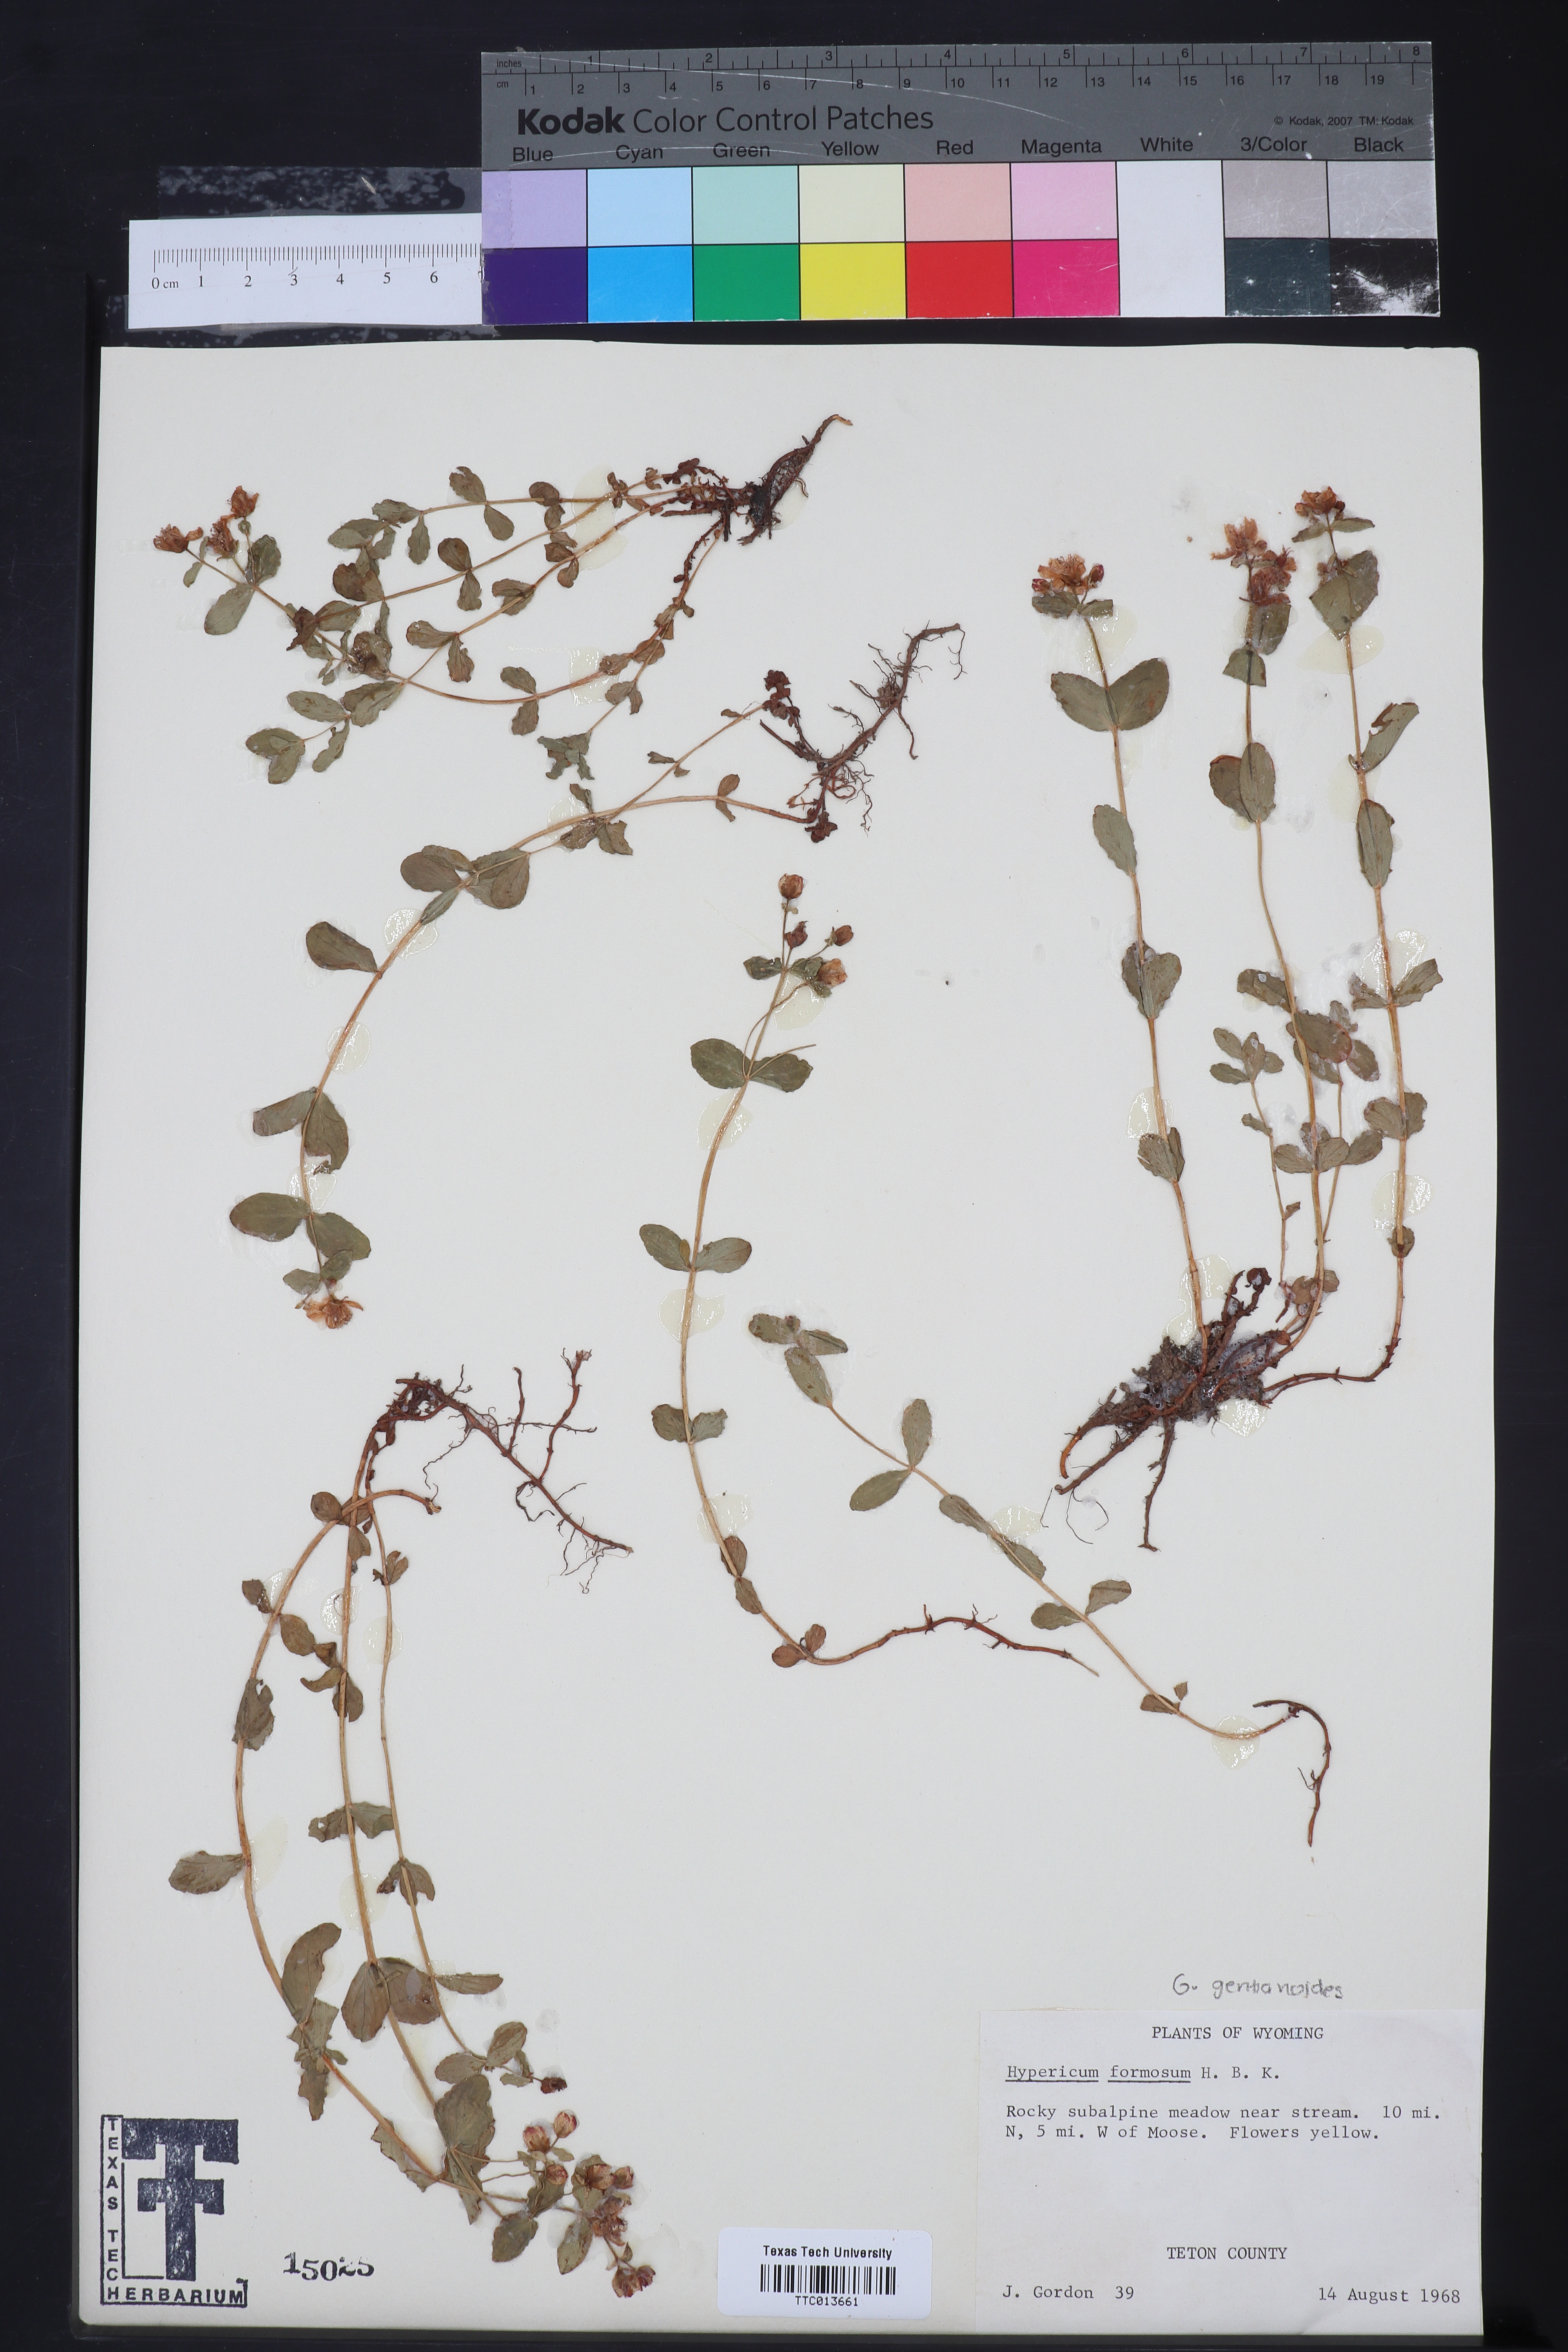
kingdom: Plantae
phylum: Tracheophyta
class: Magnoliopsida
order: Malpighiales
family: Hypericaceae
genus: Hypericum
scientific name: Hypericum formosum
